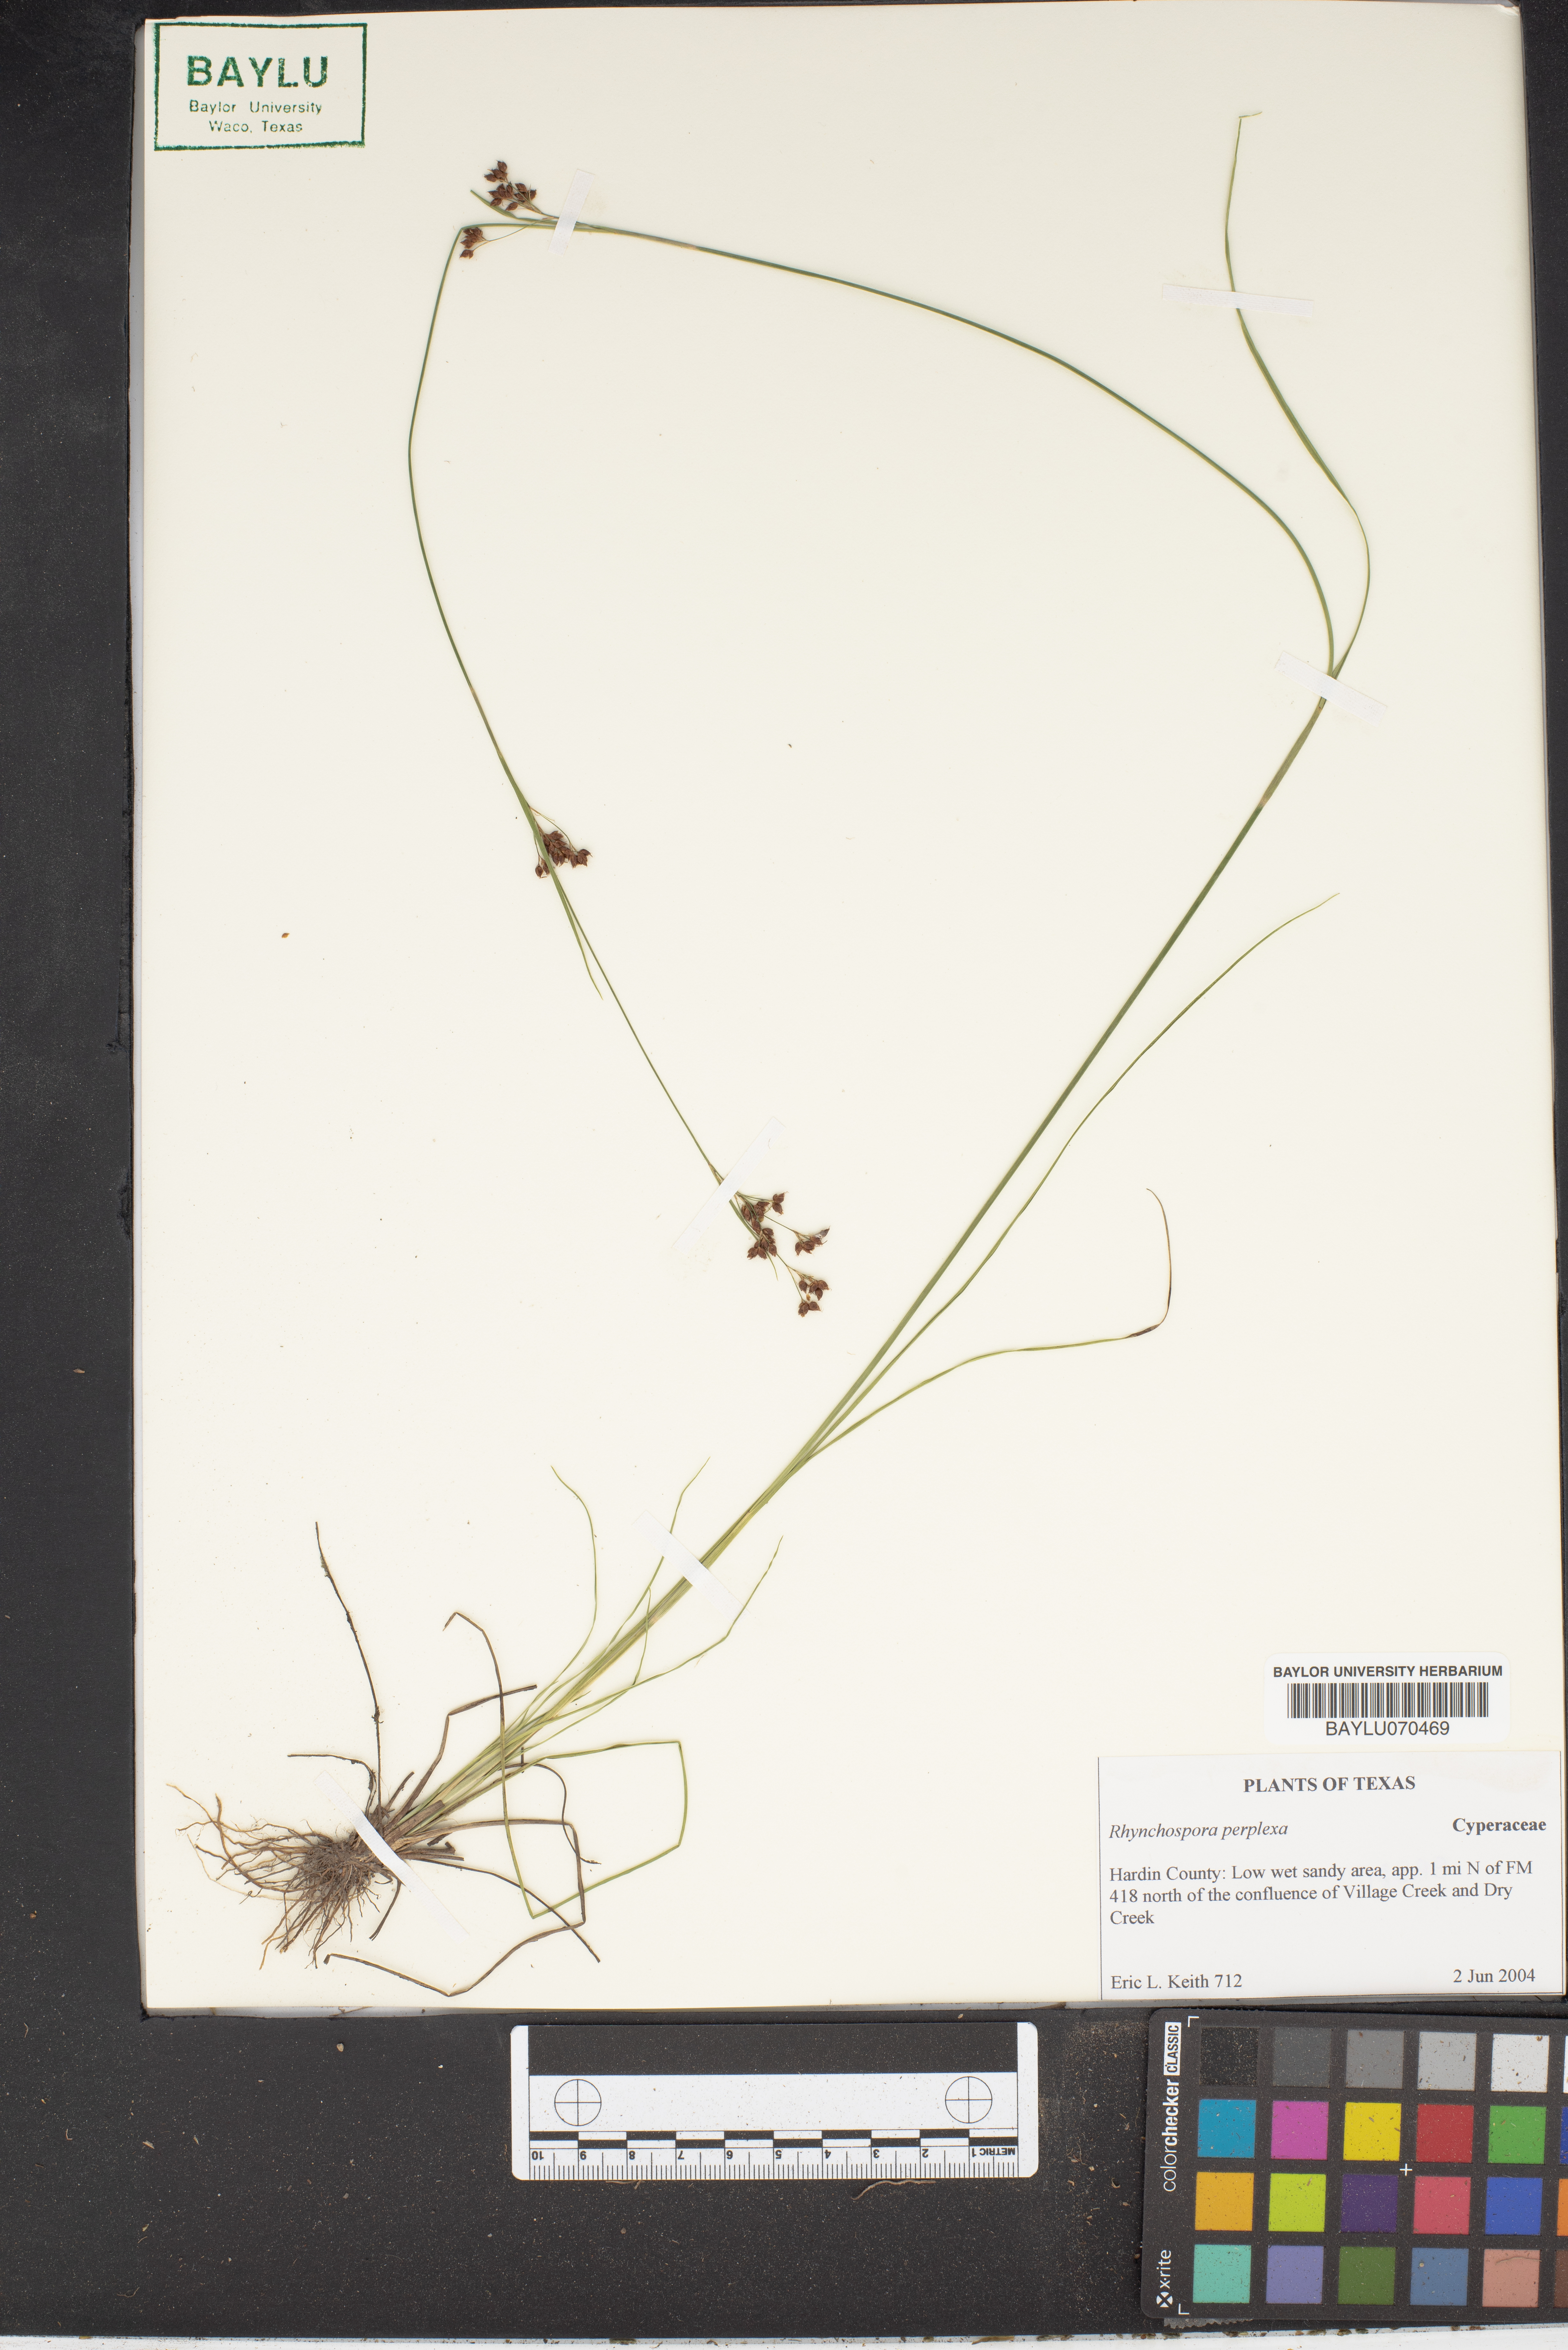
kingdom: Plantae
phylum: Tracheophyta
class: Liliopsida
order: Poales
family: Cyperaceae
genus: Rhynchospora
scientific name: Rhynchospora perplexa
